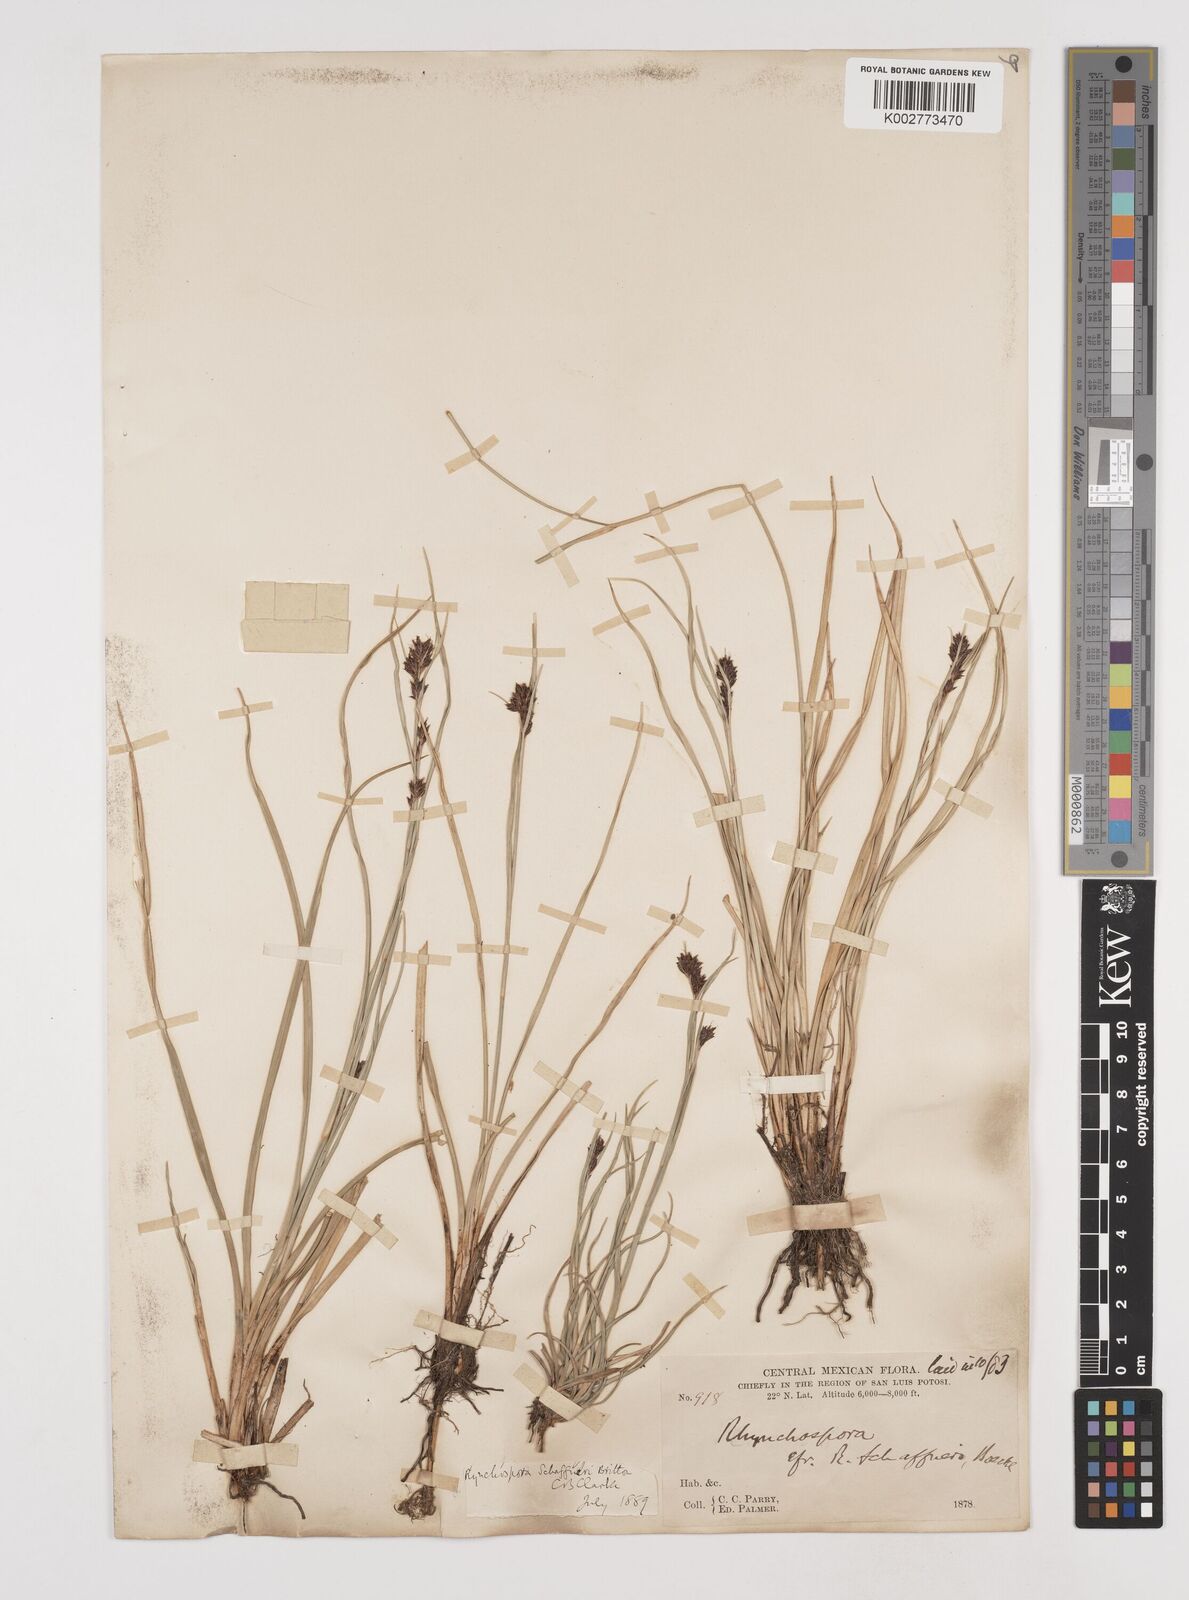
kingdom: Plantae
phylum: Tracheophyta
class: Liliopsida
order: Poales
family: Cyperaceae
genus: Rhynchospora
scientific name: Rhynchospora kunthii
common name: Kunth's beaksedge
